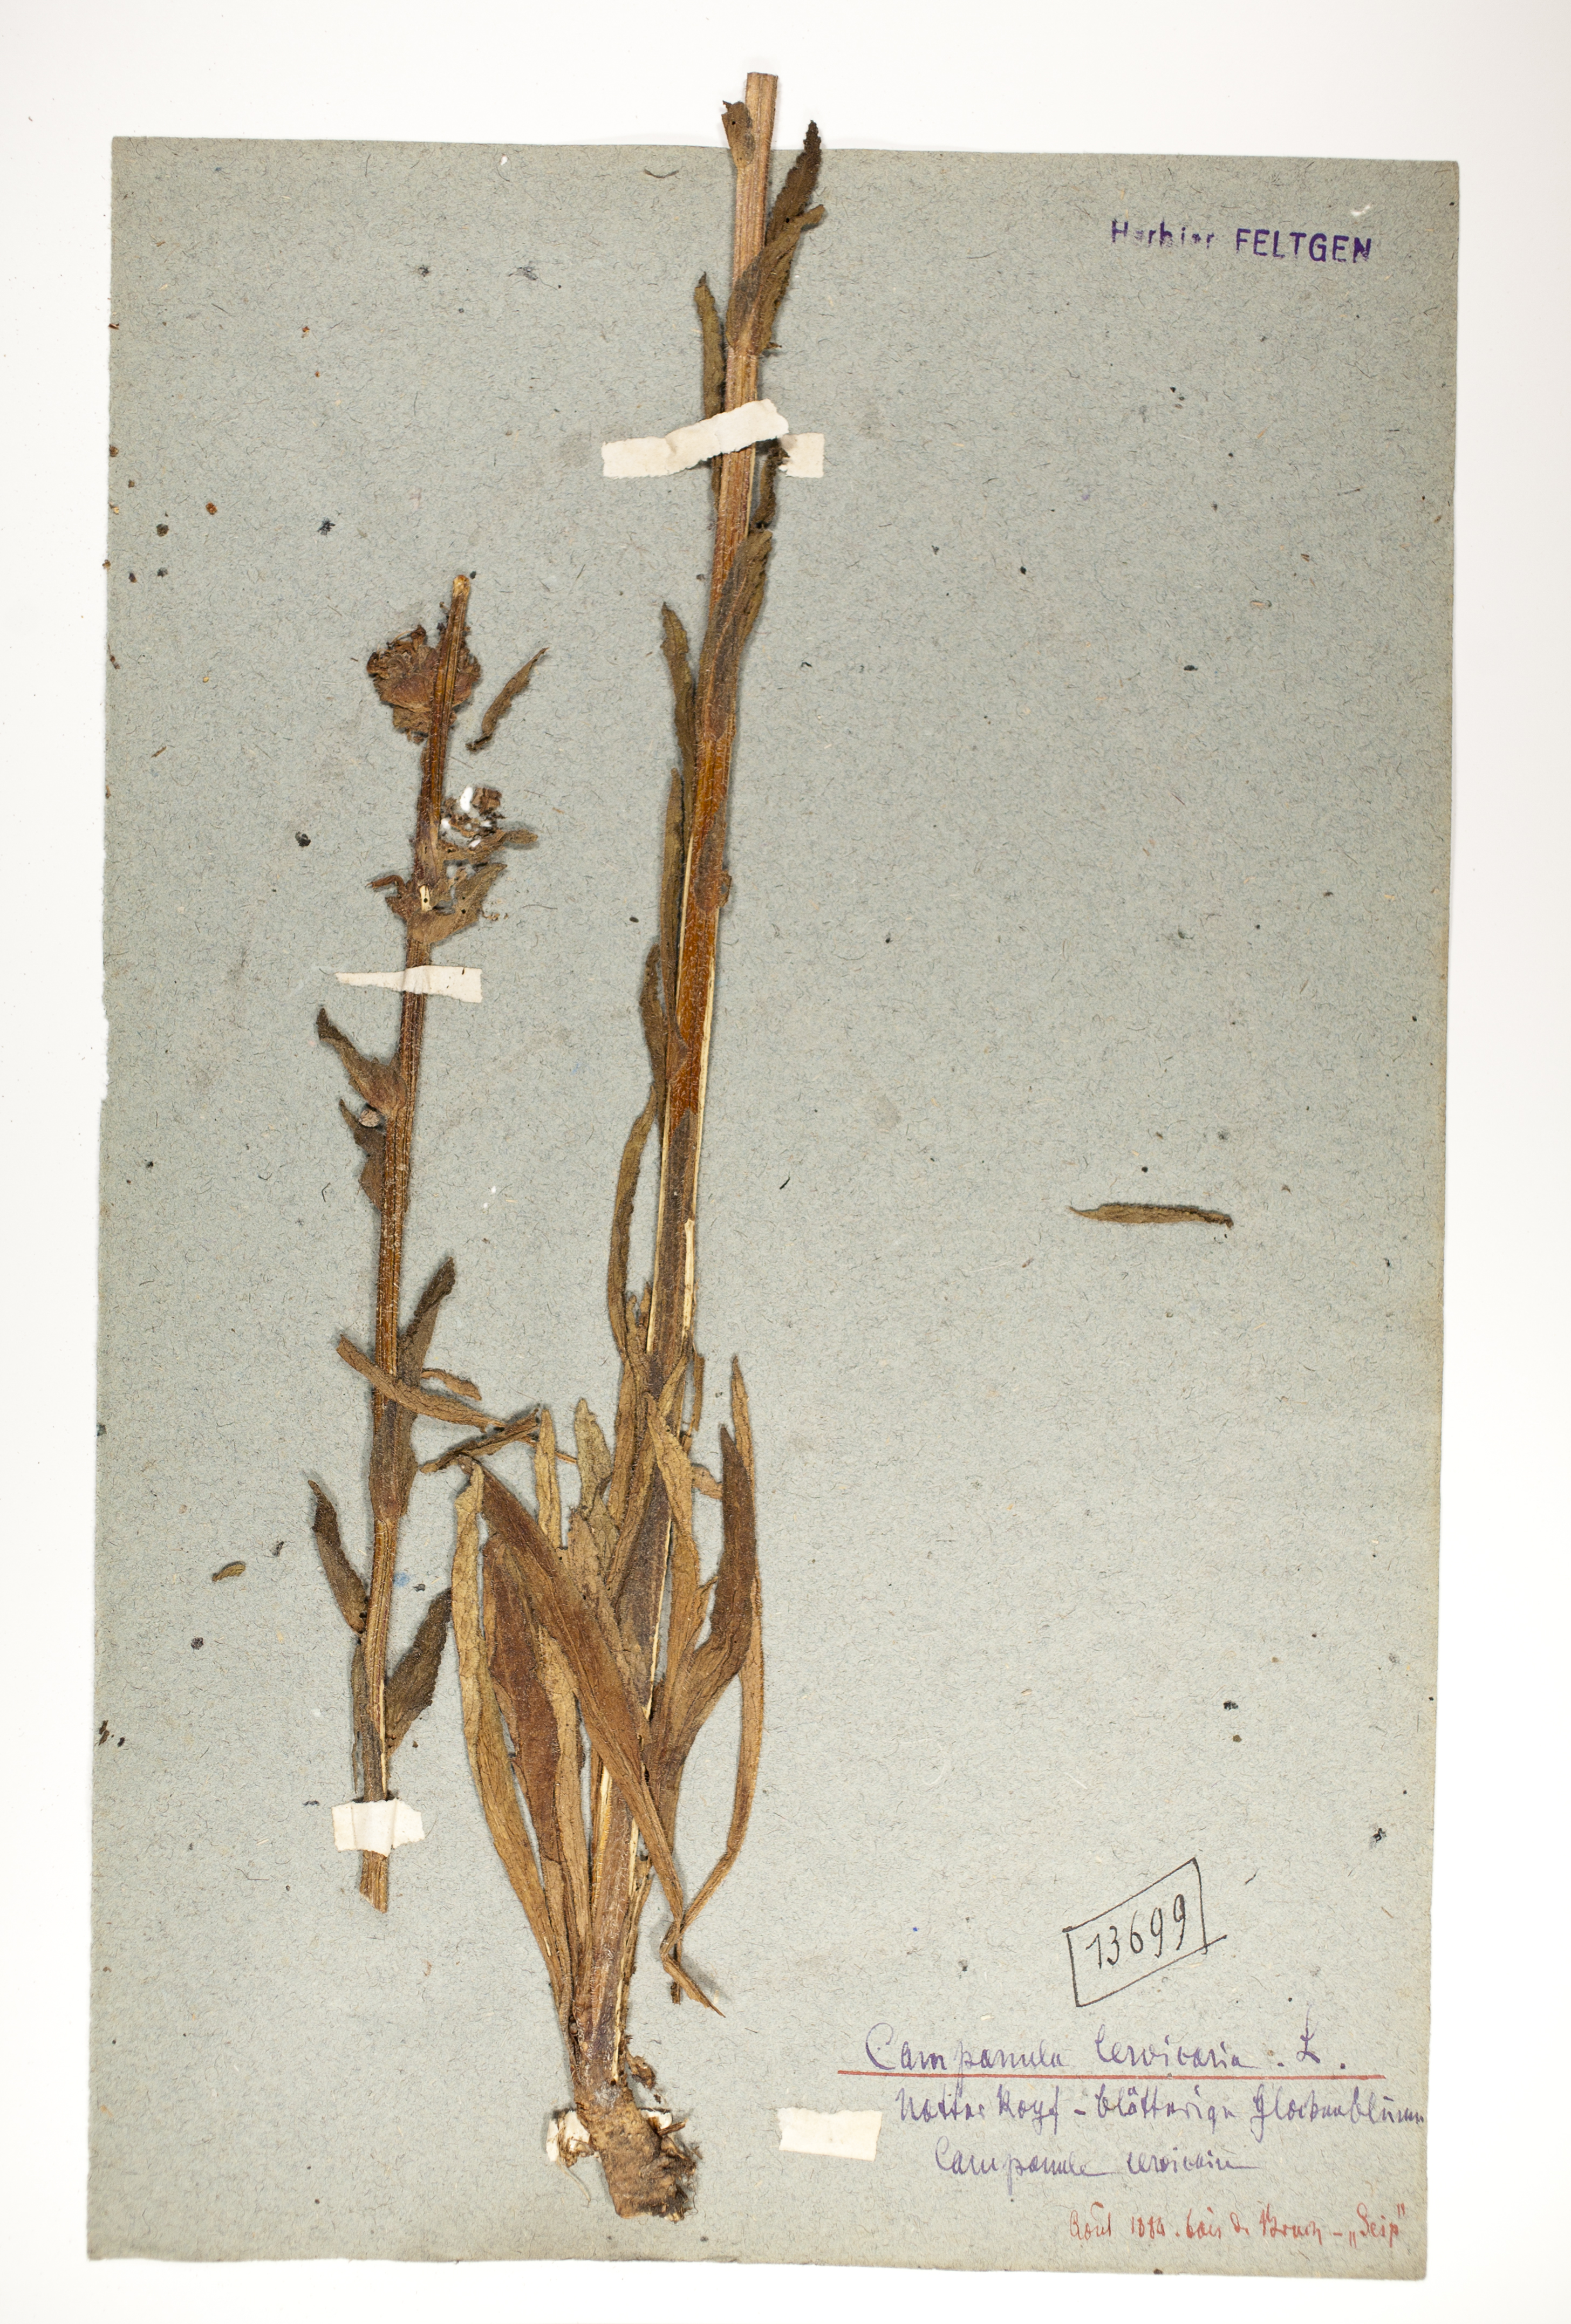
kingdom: Plantae
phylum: Tracheophyta
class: Magnoliopsida
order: Asterales
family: Campanulaceae
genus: Campanula
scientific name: Campanula cervicaria
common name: Bristly bellflower
